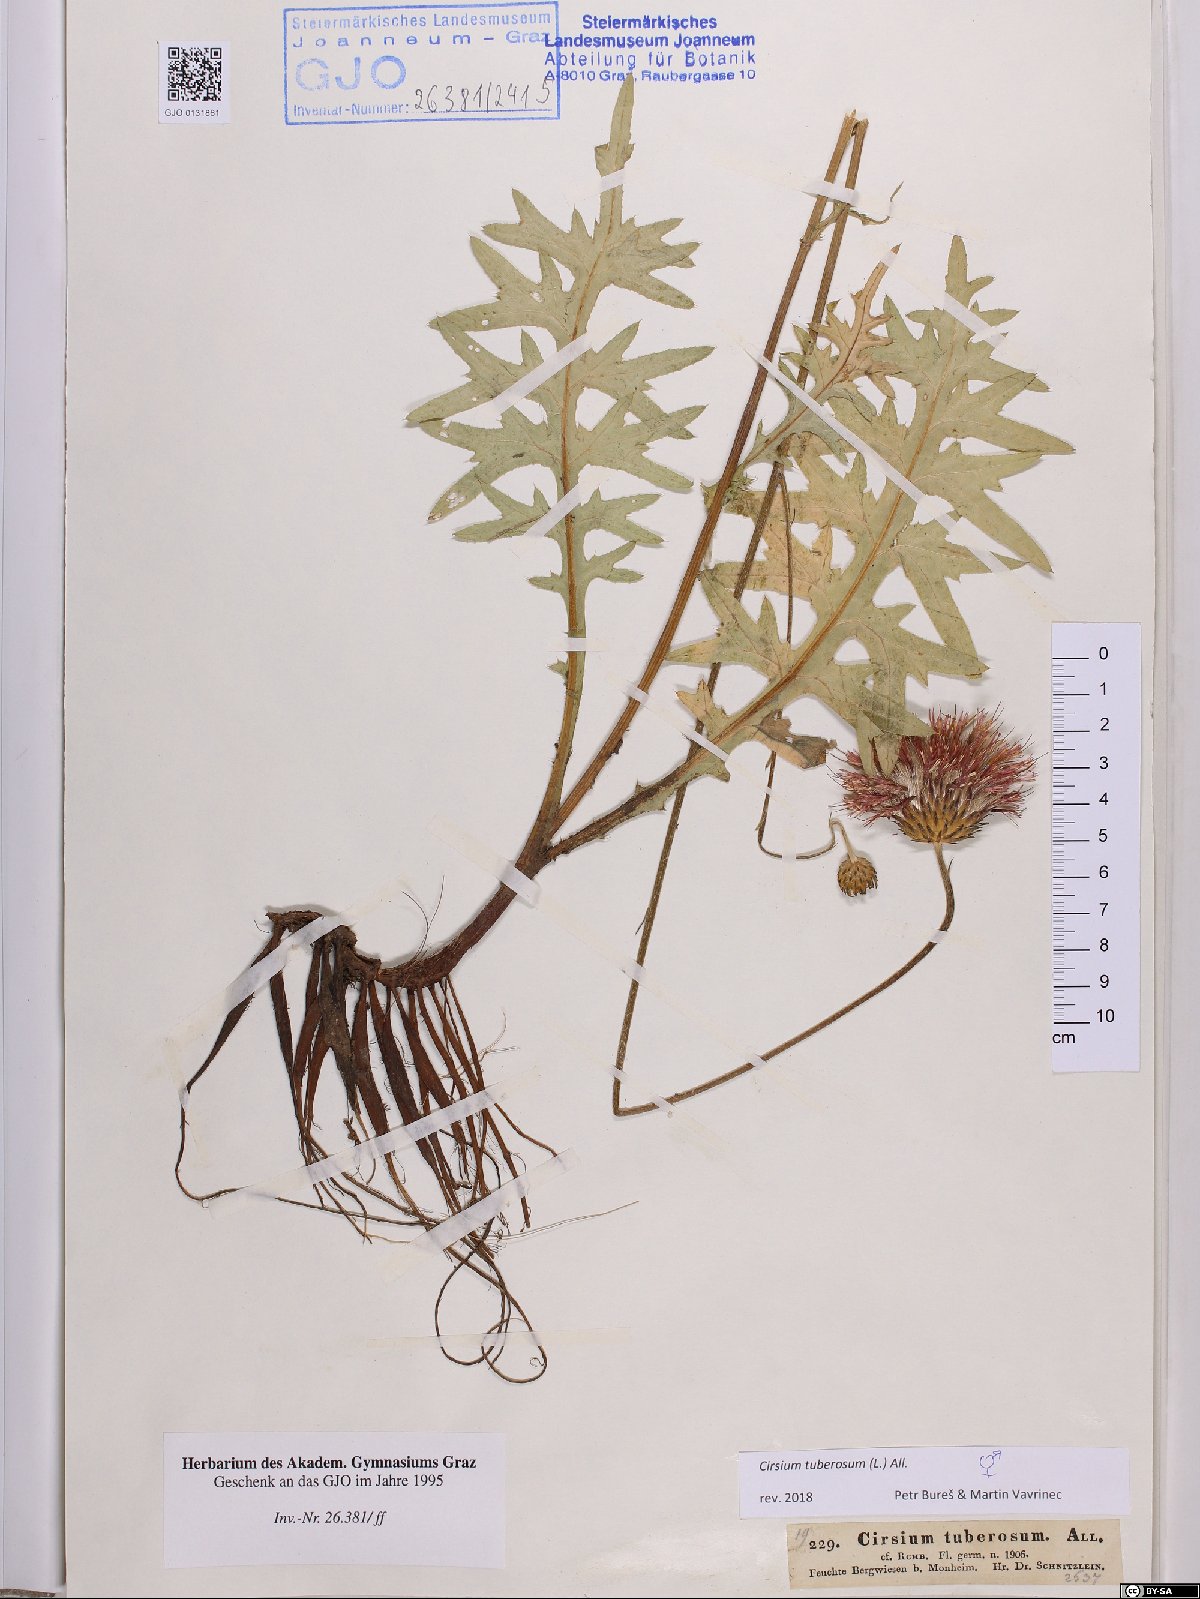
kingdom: Plantae
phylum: Tracheophyta
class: Magnoliopsida
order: Asterales
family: Asteraceae
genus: Cirsium
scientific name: Cirsium tuberosum
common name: Tuberous thistle
